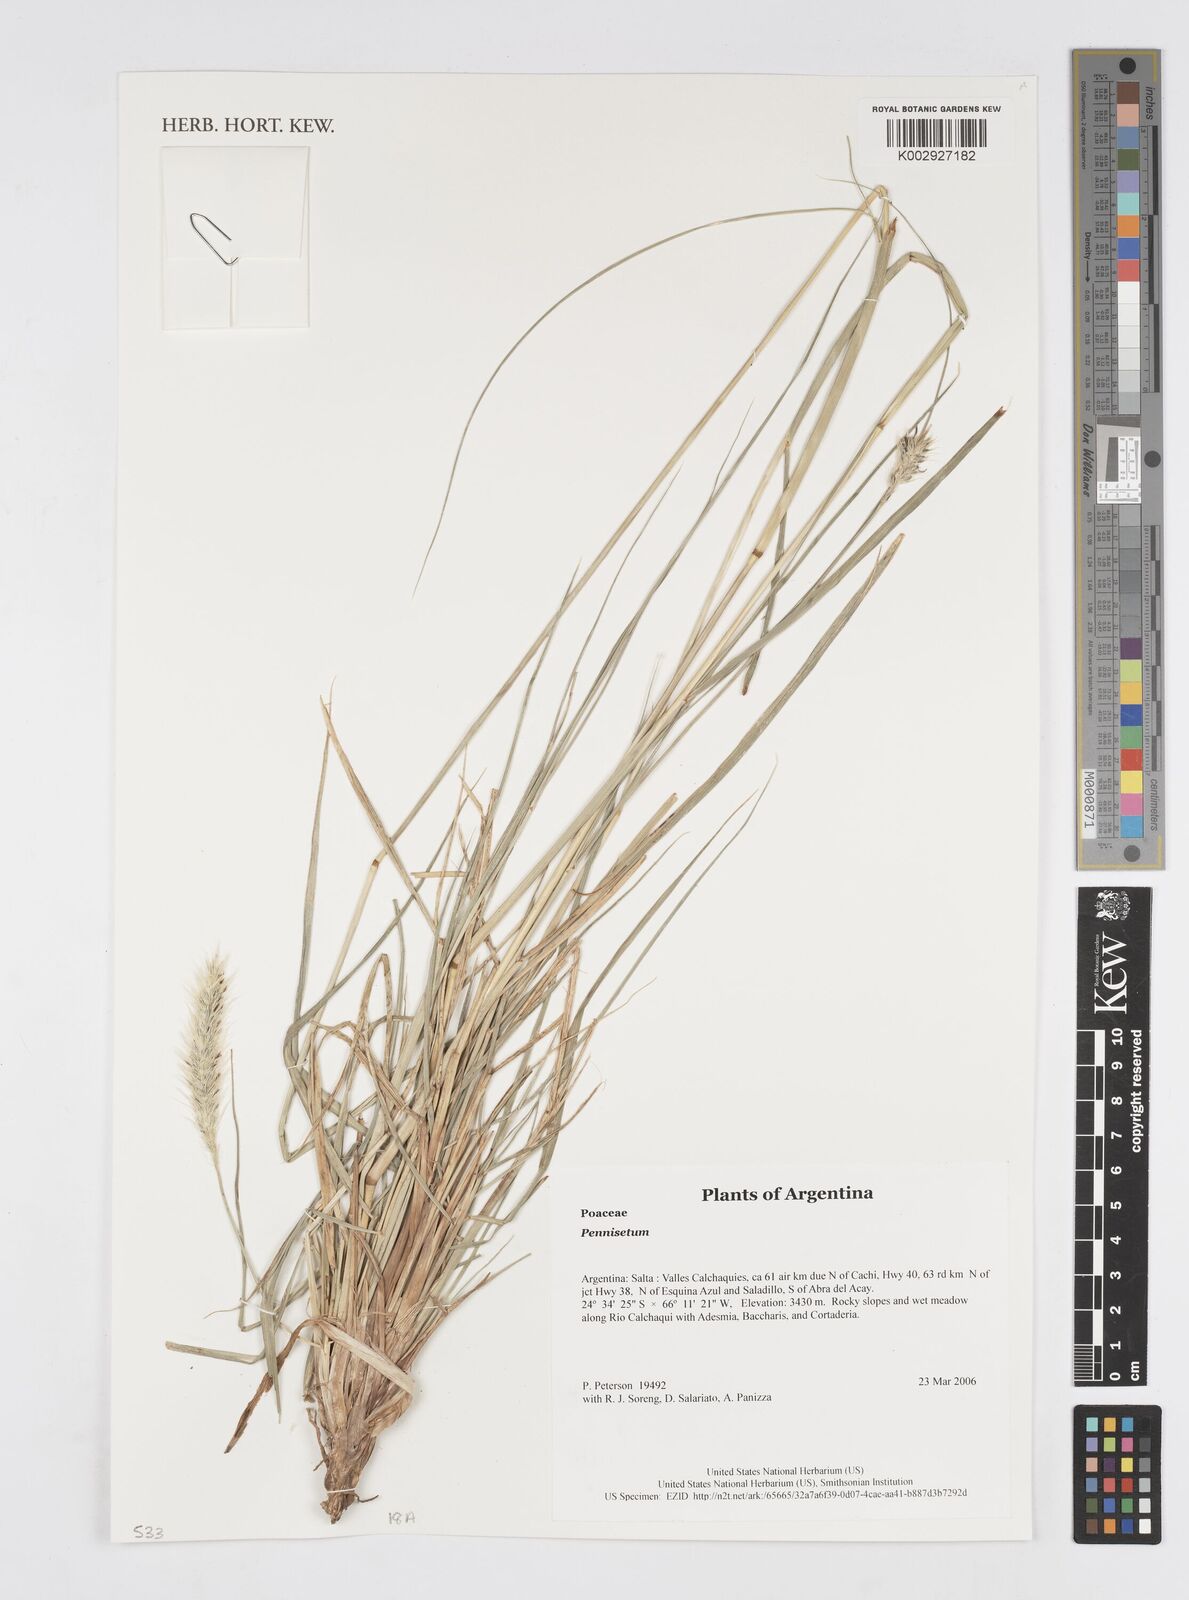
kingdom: Plantae
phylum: Tracheophyta
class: Liliopsida
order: Poales
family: Poaceae
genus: Cenchrus
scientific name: Cenchrus Pennisetum spec
